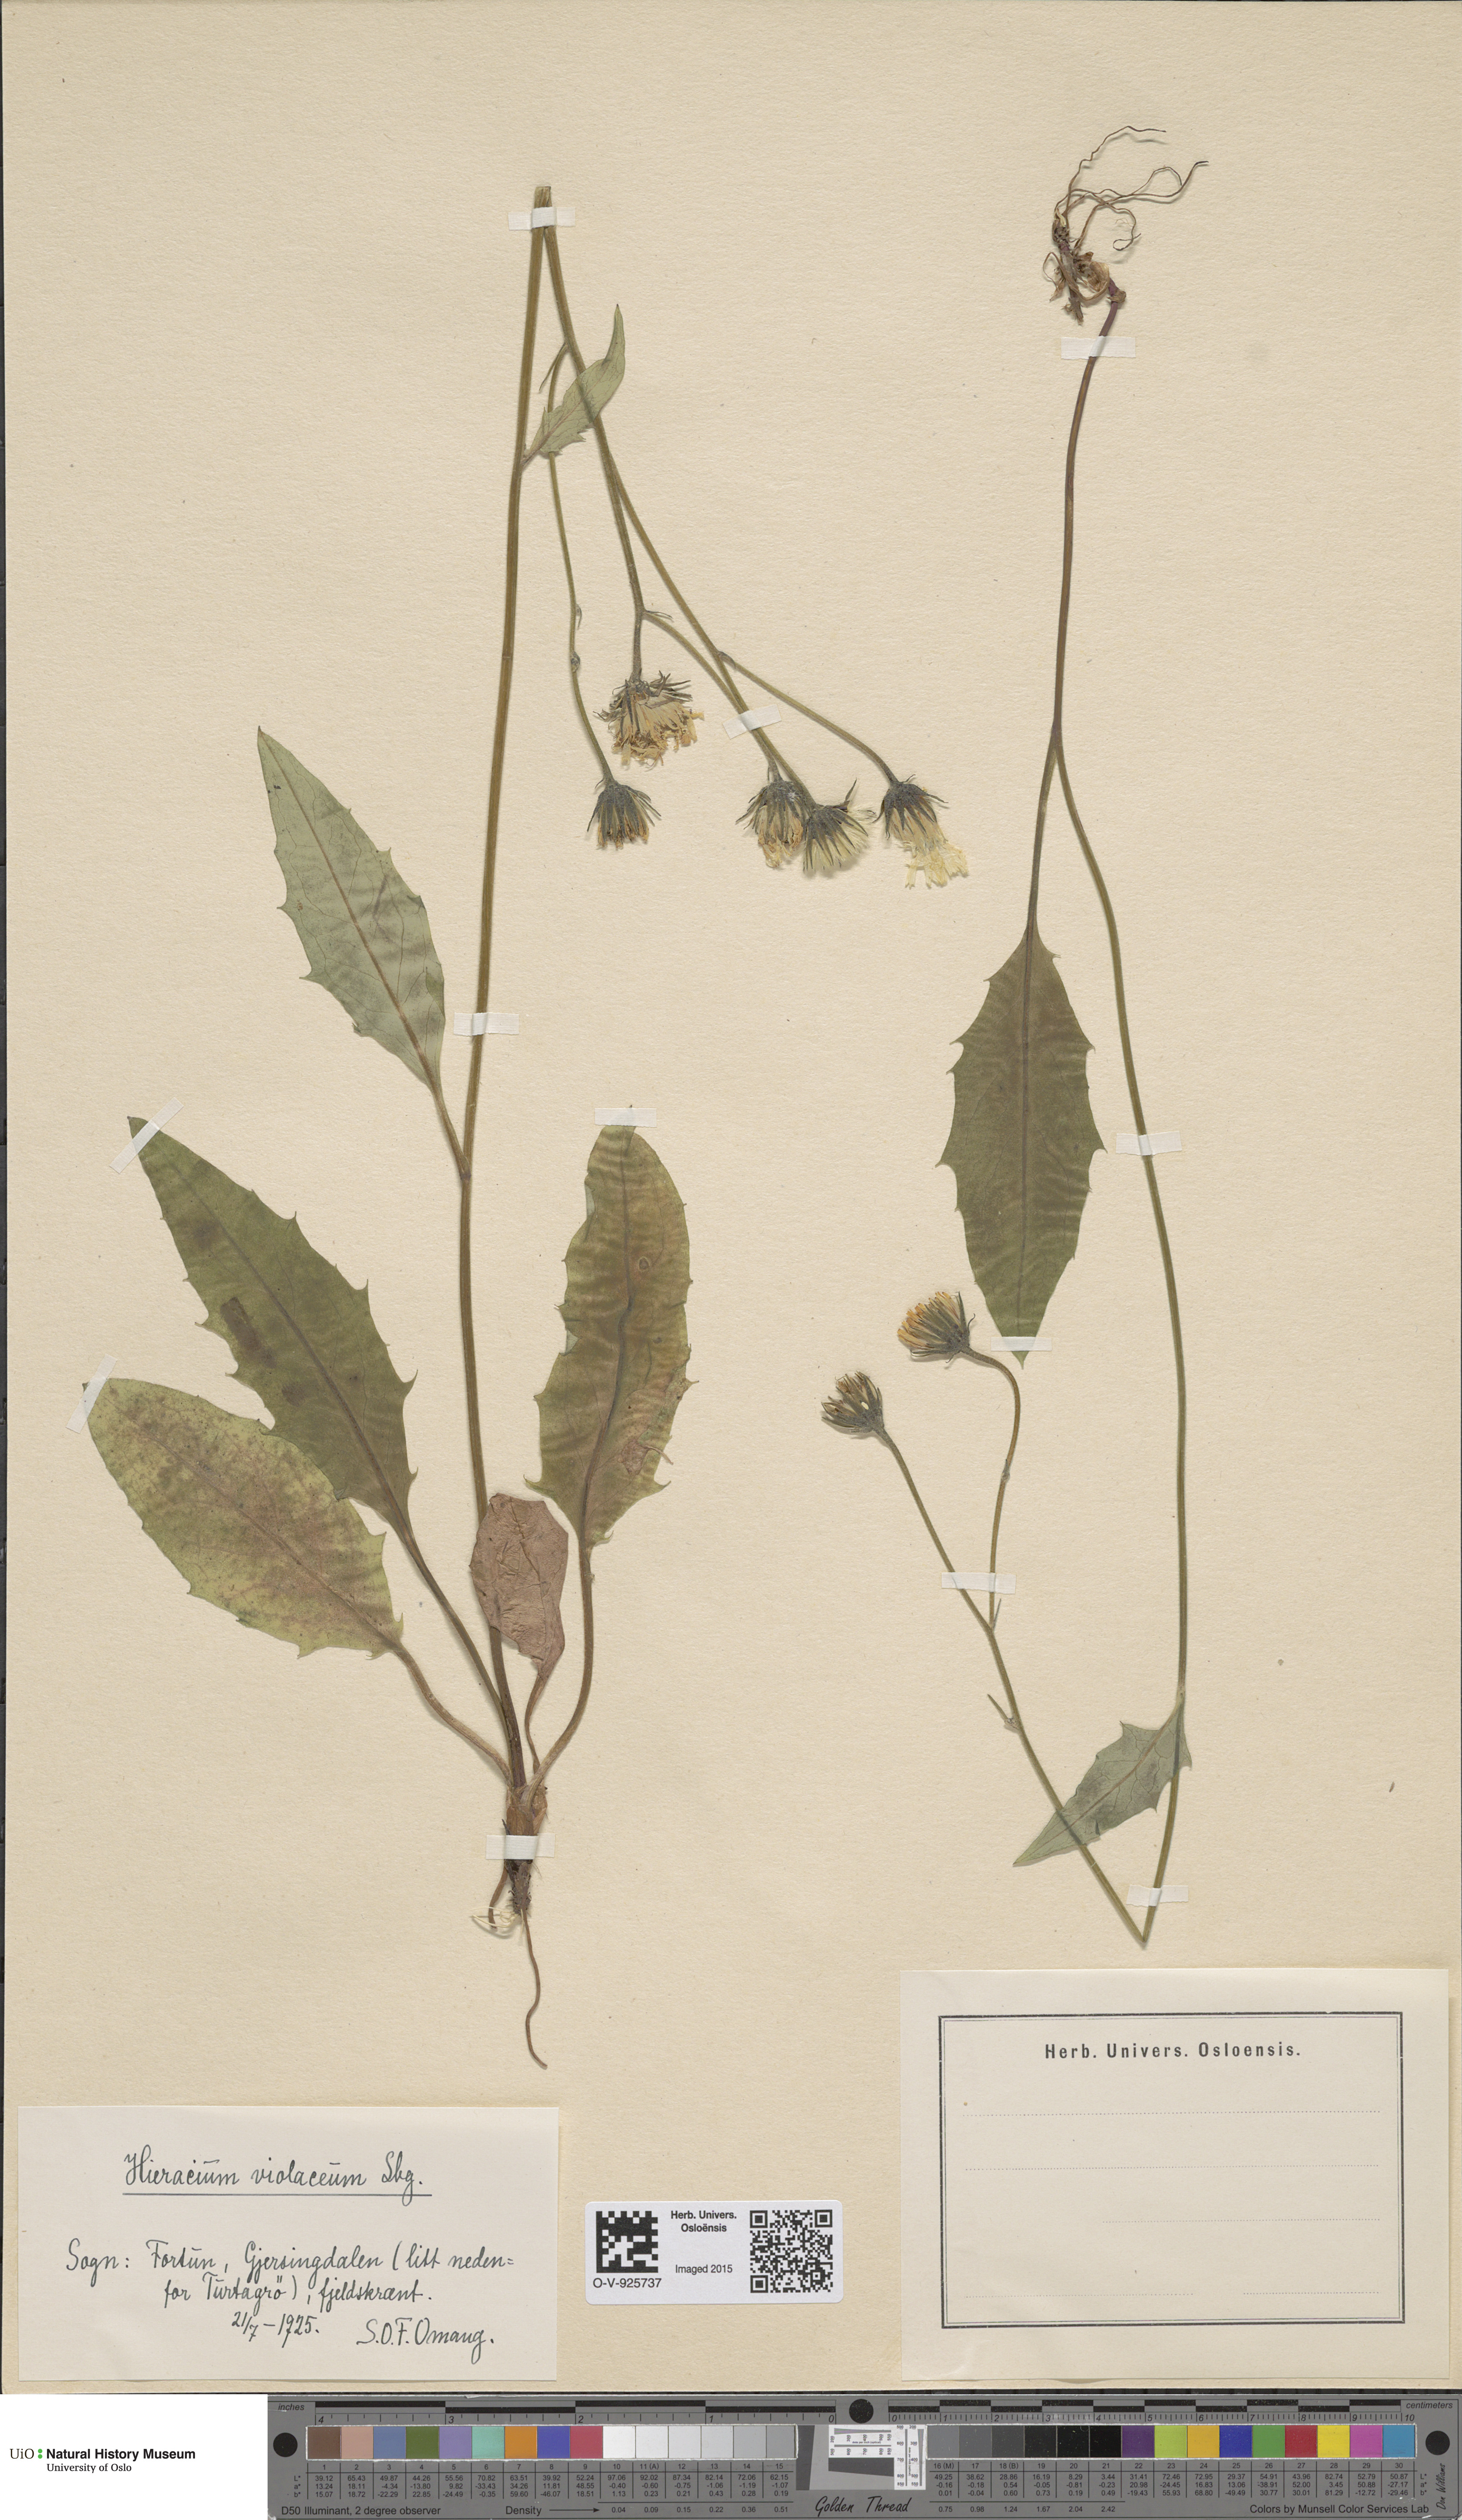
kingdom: Plantae
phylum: Tracheophyta
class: Magnoliopsida
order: Asterales
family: Asteraceae
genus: Hieracium
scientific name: Hieracium
